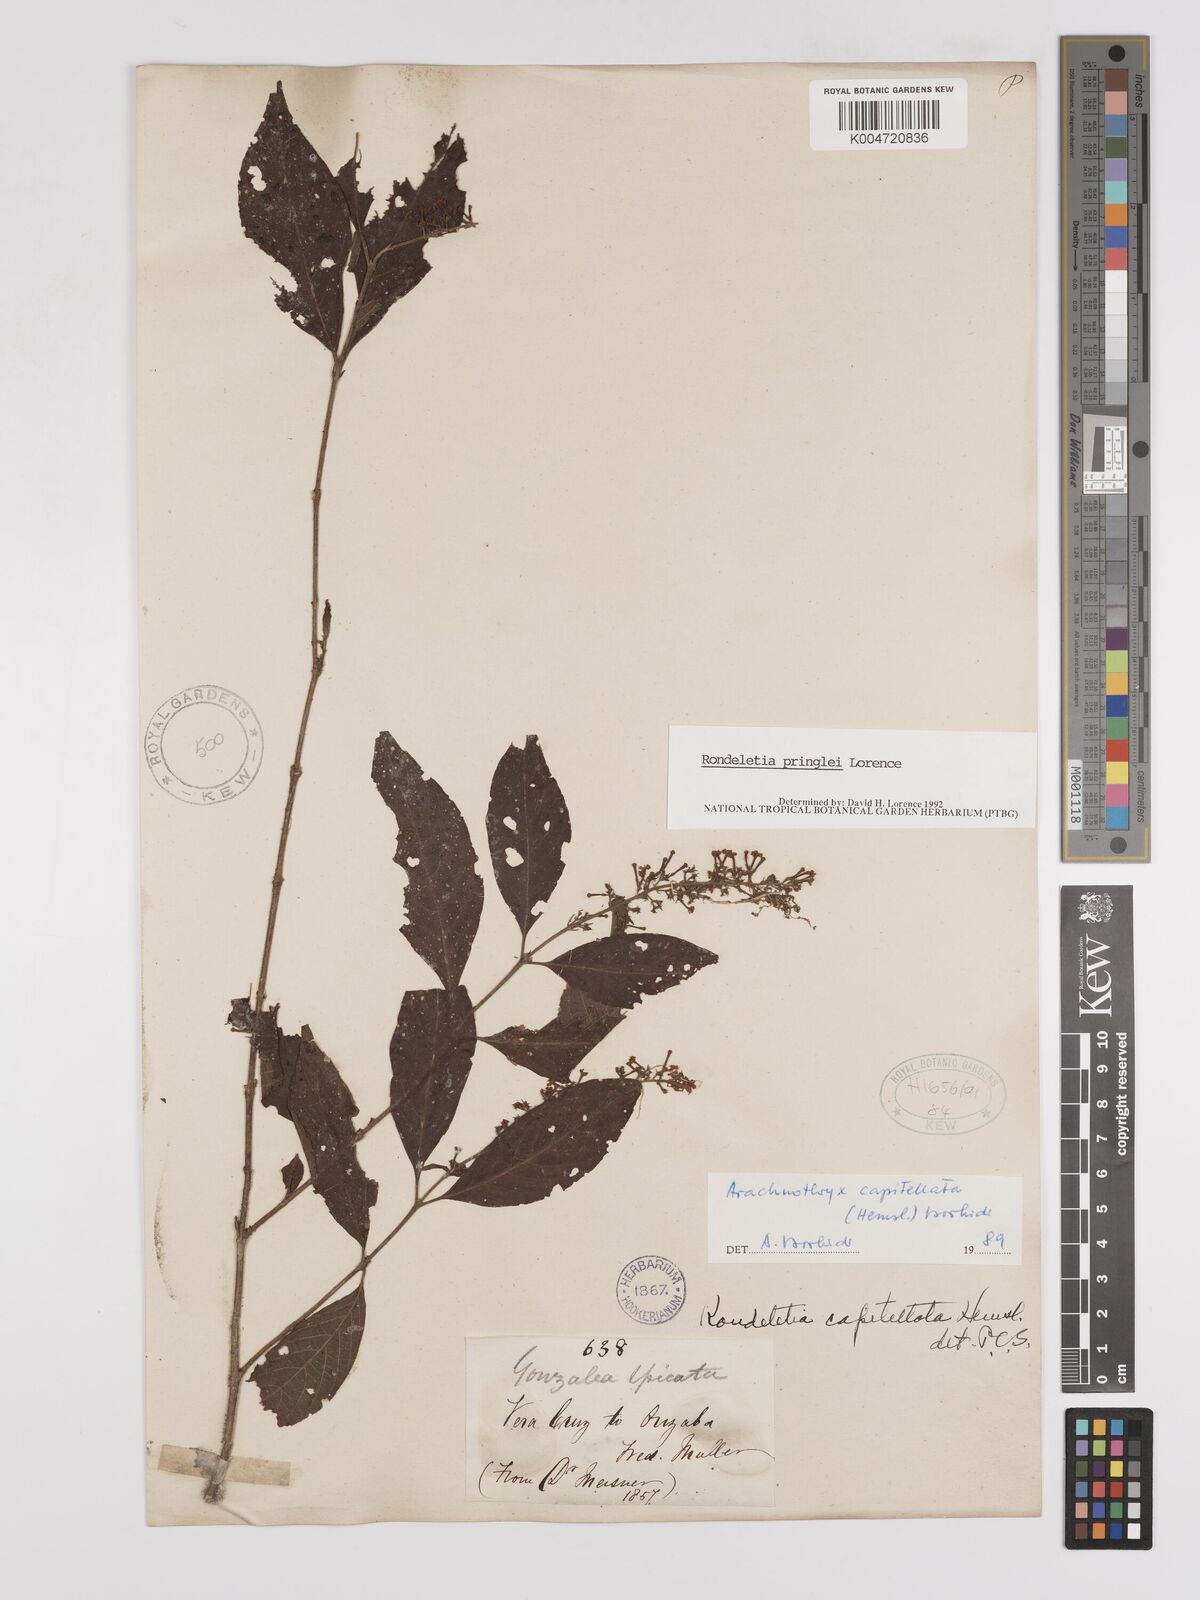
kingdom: Plantae
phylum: Tracheophyta
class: Magnoliopsida
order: Gentianales
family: Rubiaceae
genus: Arachnothryx
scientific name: Arachnothryx capitellata
